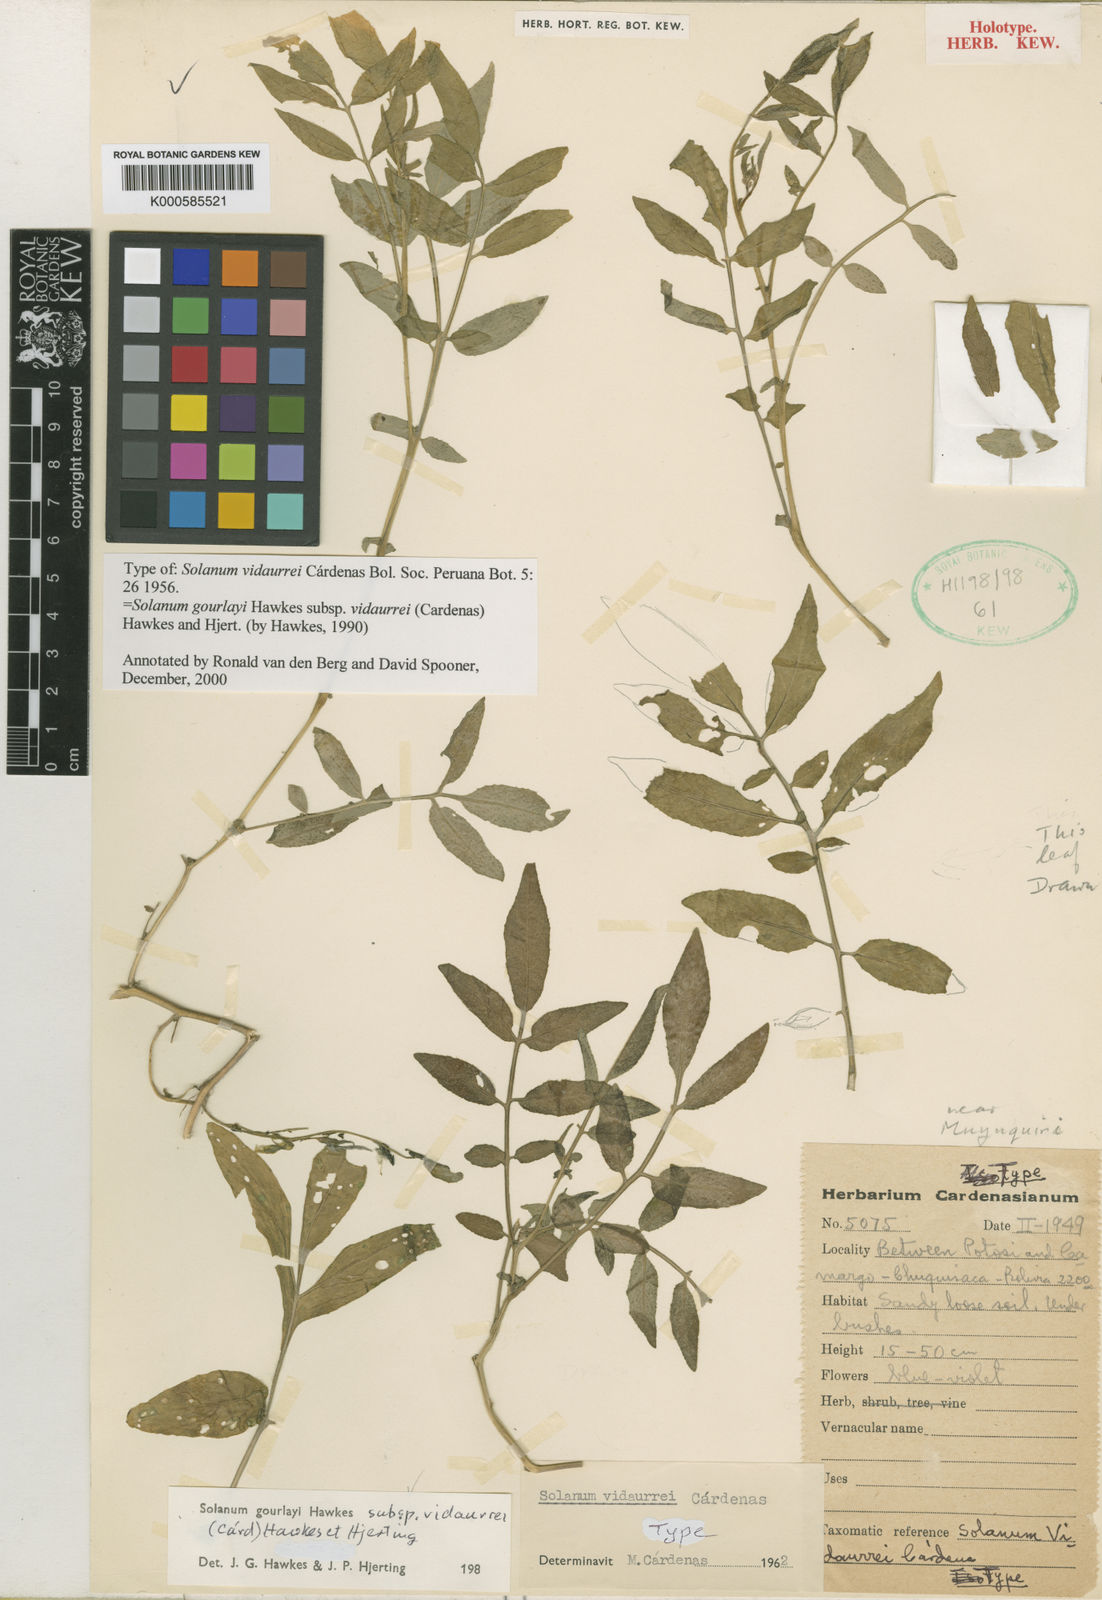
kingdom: Plantae
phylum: Tracheophyta
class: Magnoliopsida
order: Solanales
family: Solanaceae
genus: Solanum
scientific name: Solanum brevicaule
